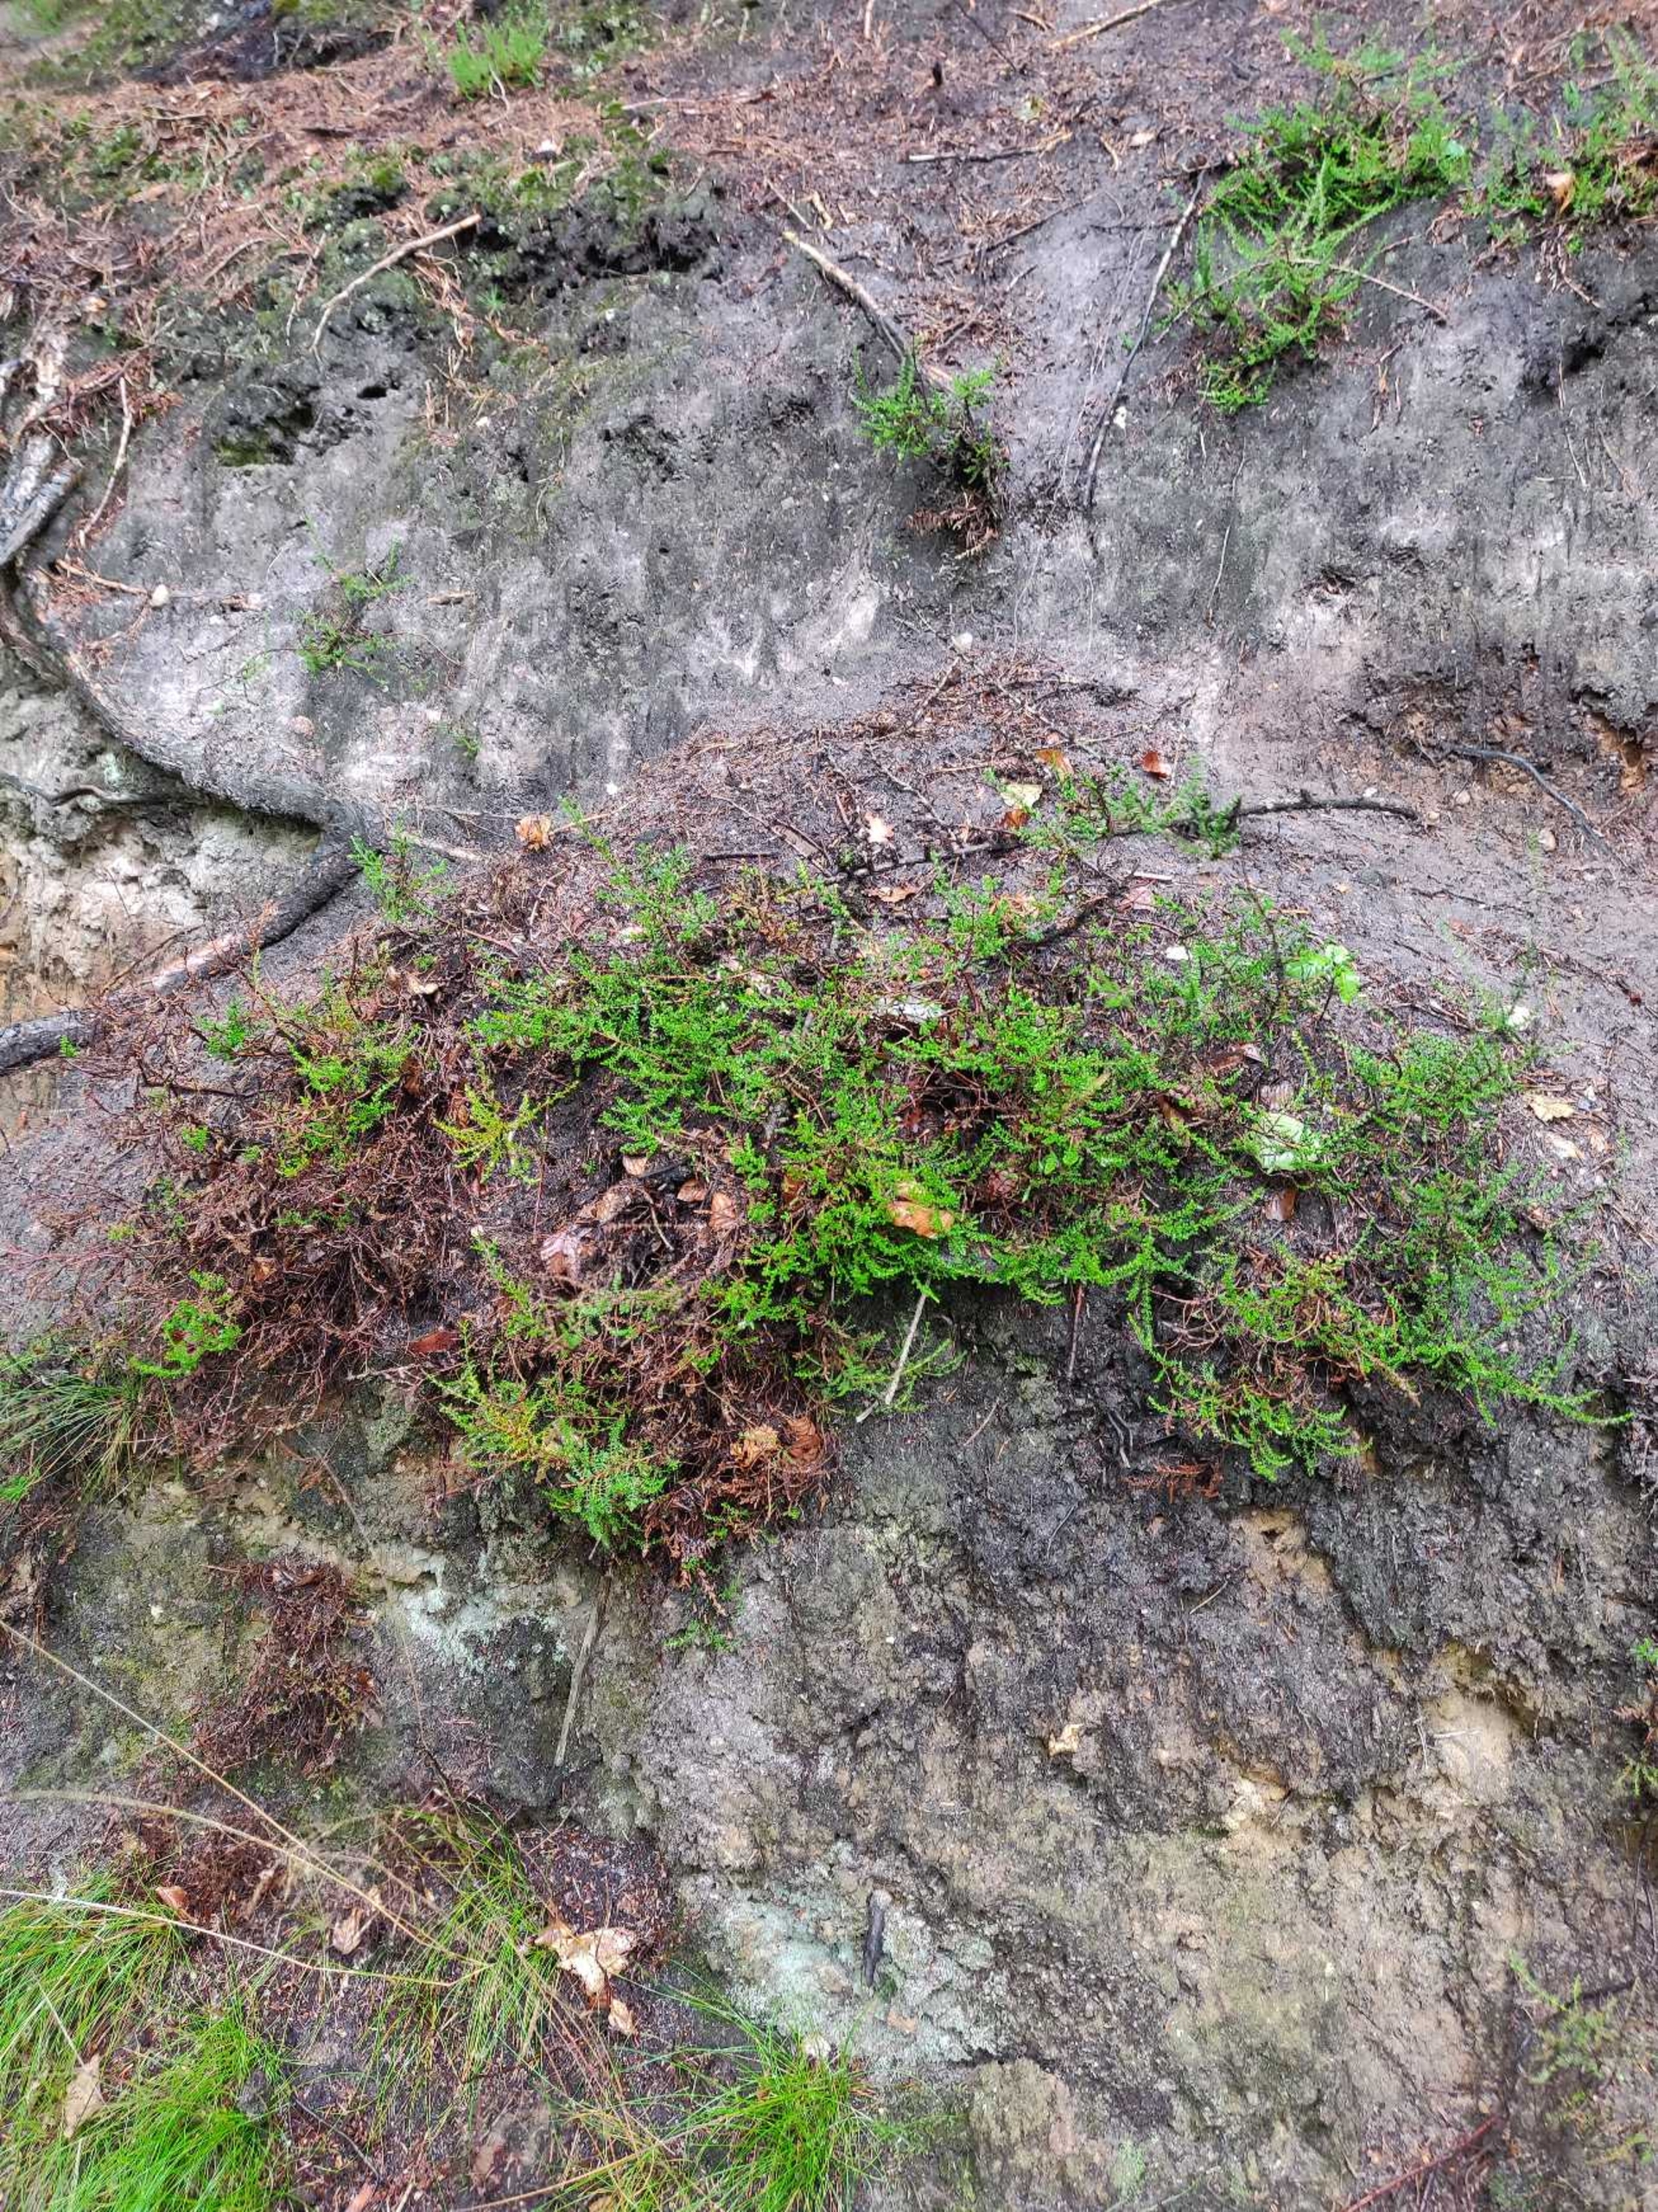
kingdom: Plantae
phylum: Tracheophyta
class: Magnoliopsida
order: Ericales
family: Ericaceae
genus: Calluna
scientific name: Calluna vulgaris
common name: Hedelyng
